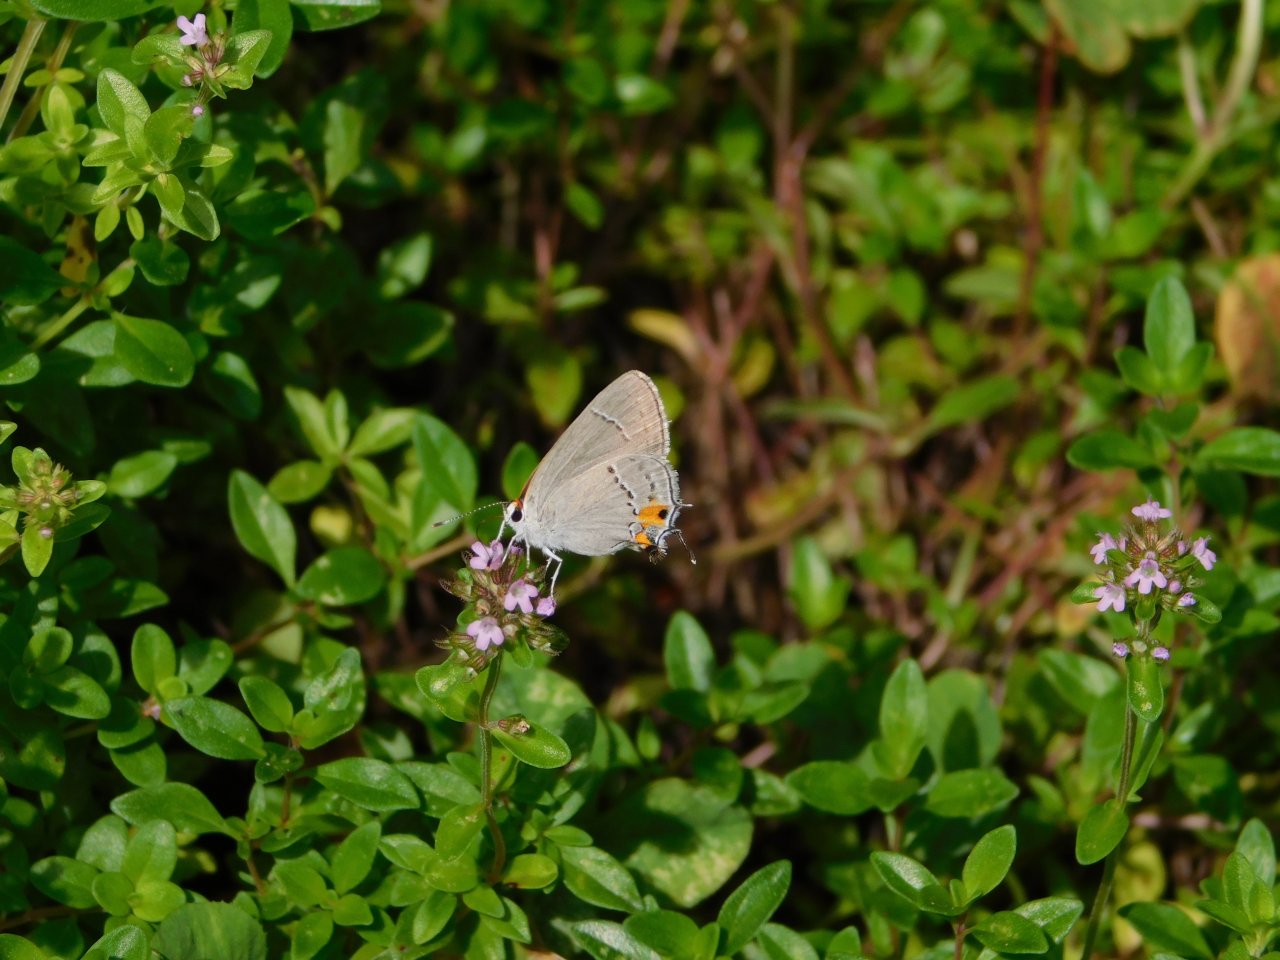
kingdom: Animalia
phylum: Arthropoda
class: Insecta
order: Lepidoptera
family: Lycaenidae
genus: Strymon
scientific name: Strymon melinus
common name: Gray Hairstreak
